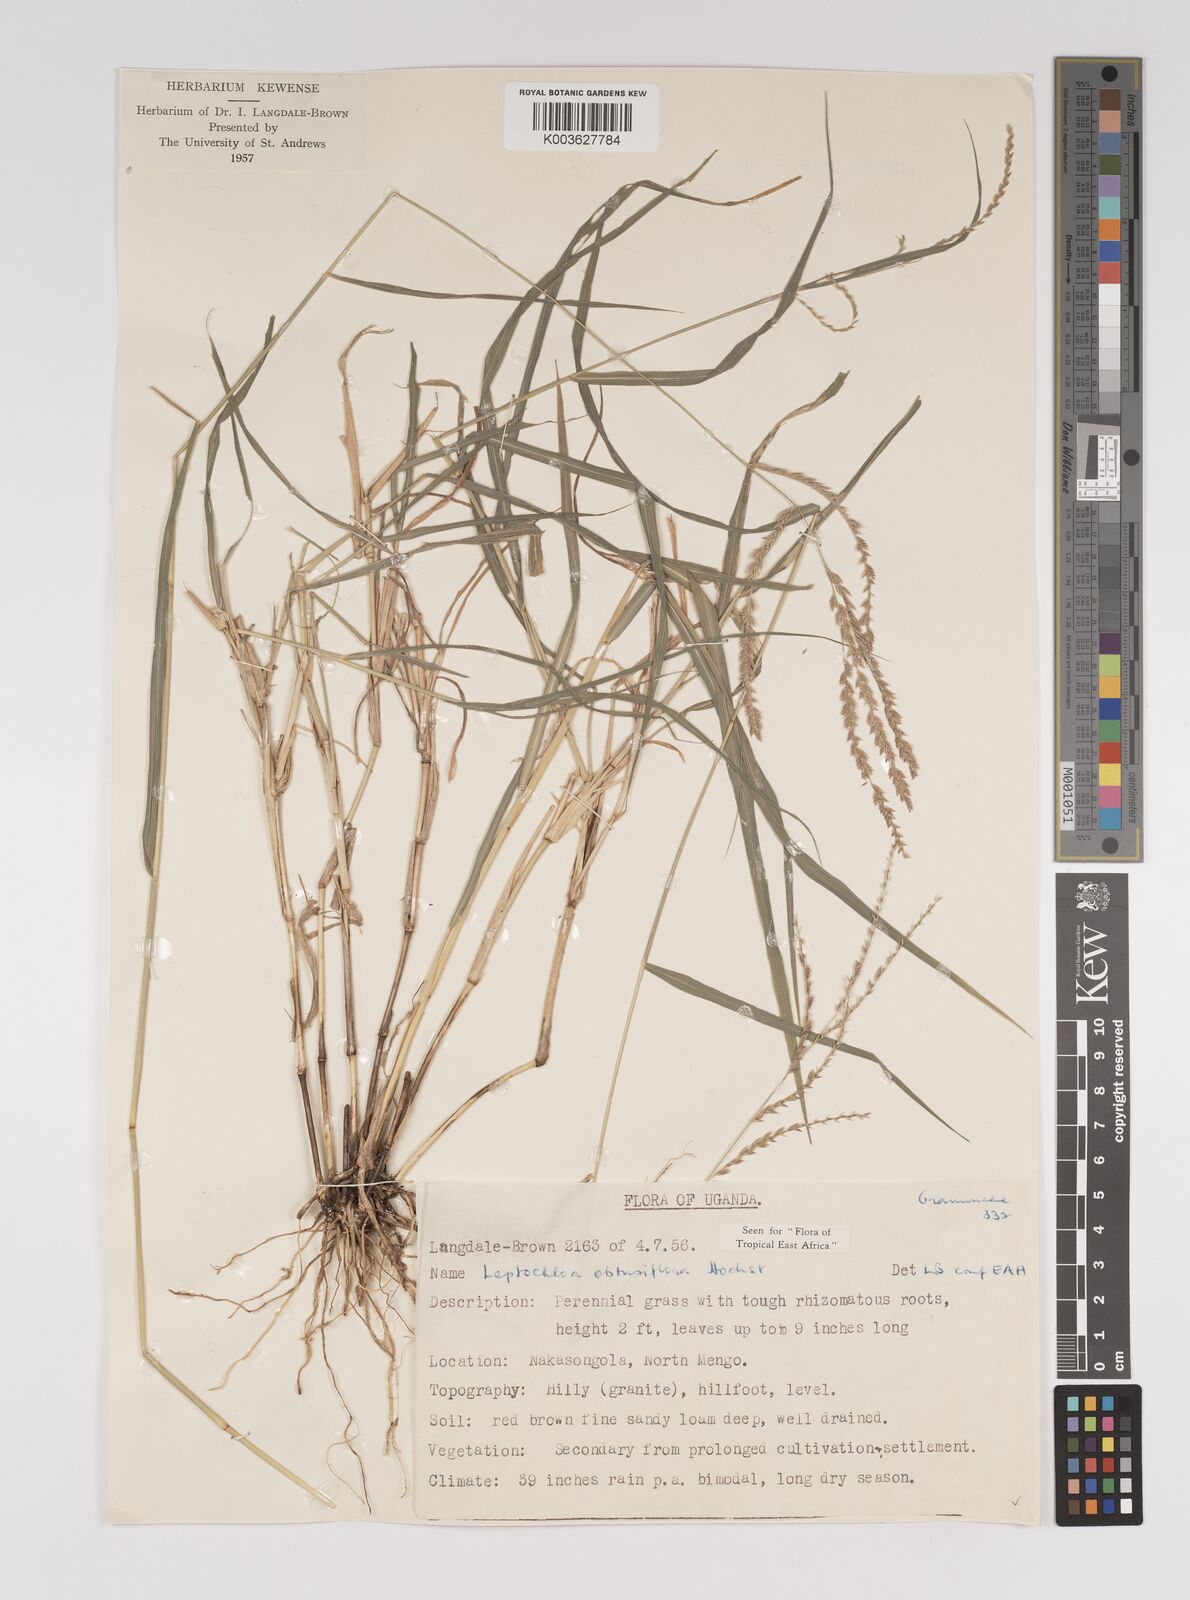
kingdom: Plantae
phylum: Tracheophyta
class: Liliopsida
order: Poales
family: Poaceae
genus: Disakisperma
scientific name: Disakisperma obtusiflorum
